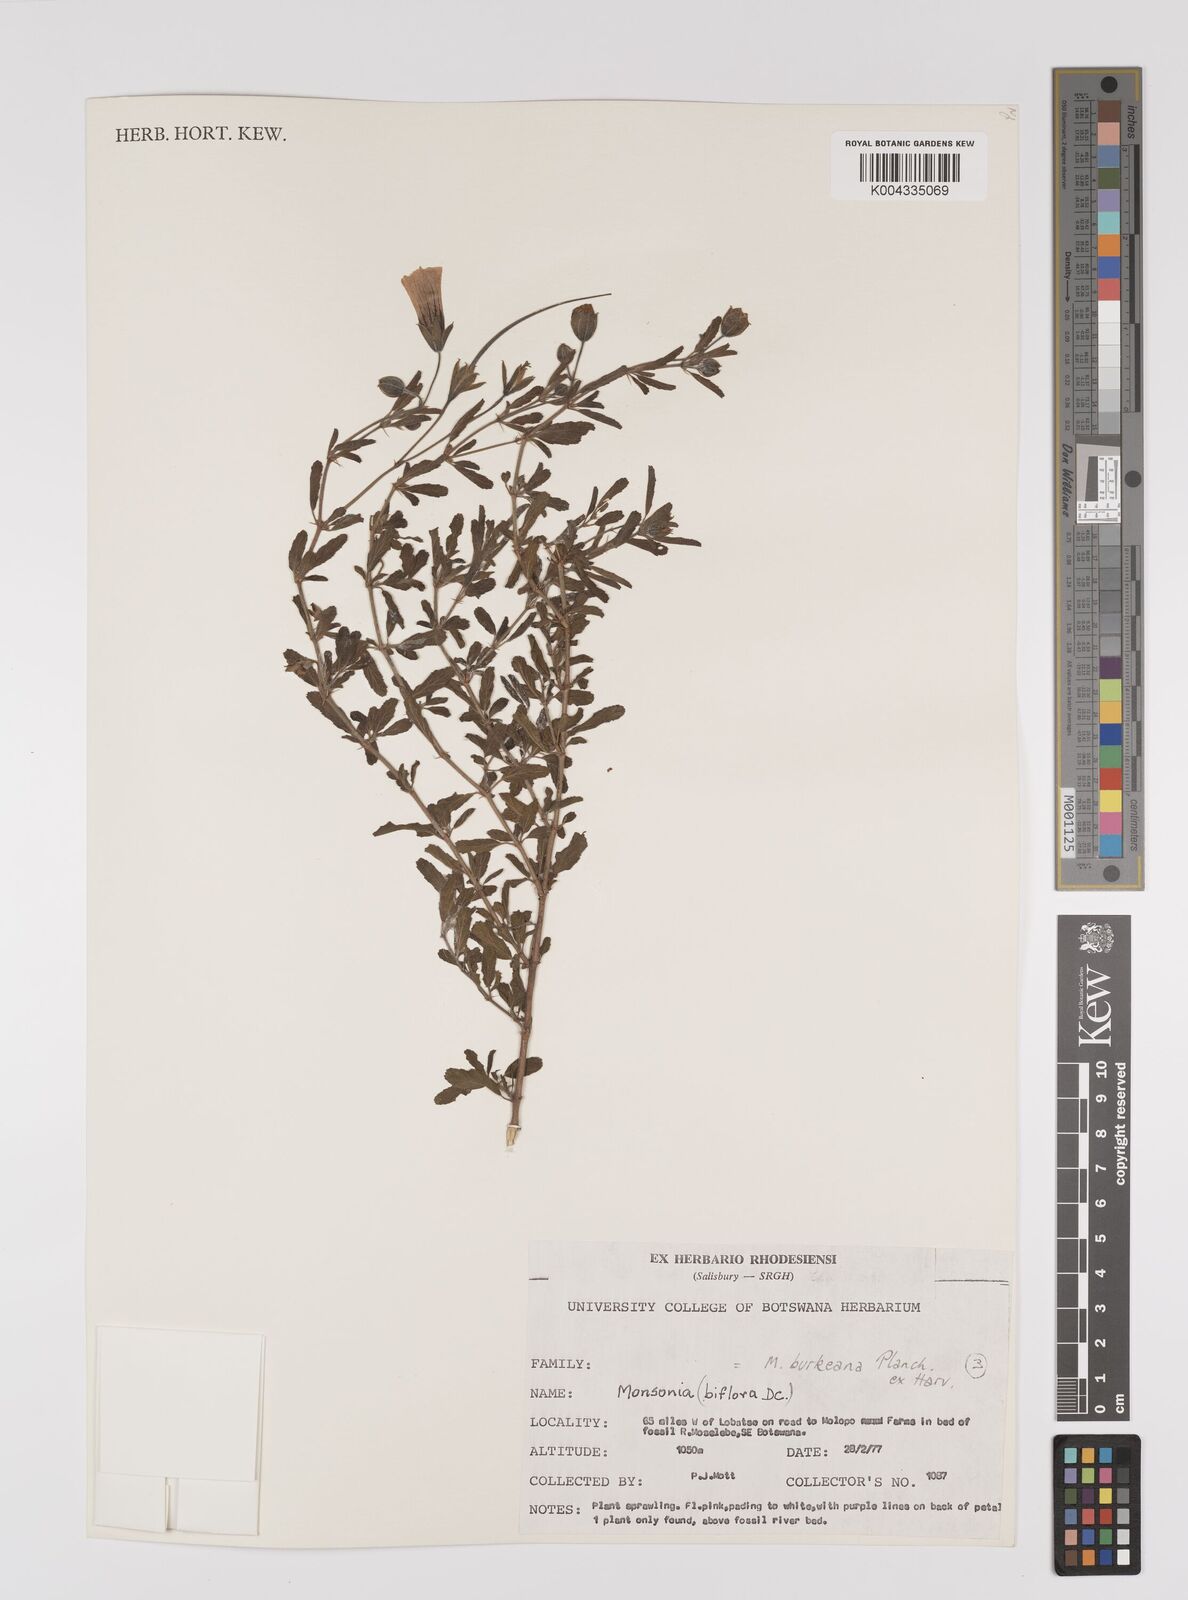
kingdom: Plantae
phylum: Tracheophyta
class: Magnoliopsida
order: Geraniales
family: Geraniaceae
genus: Monsonia
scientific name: Monsonia biflora
